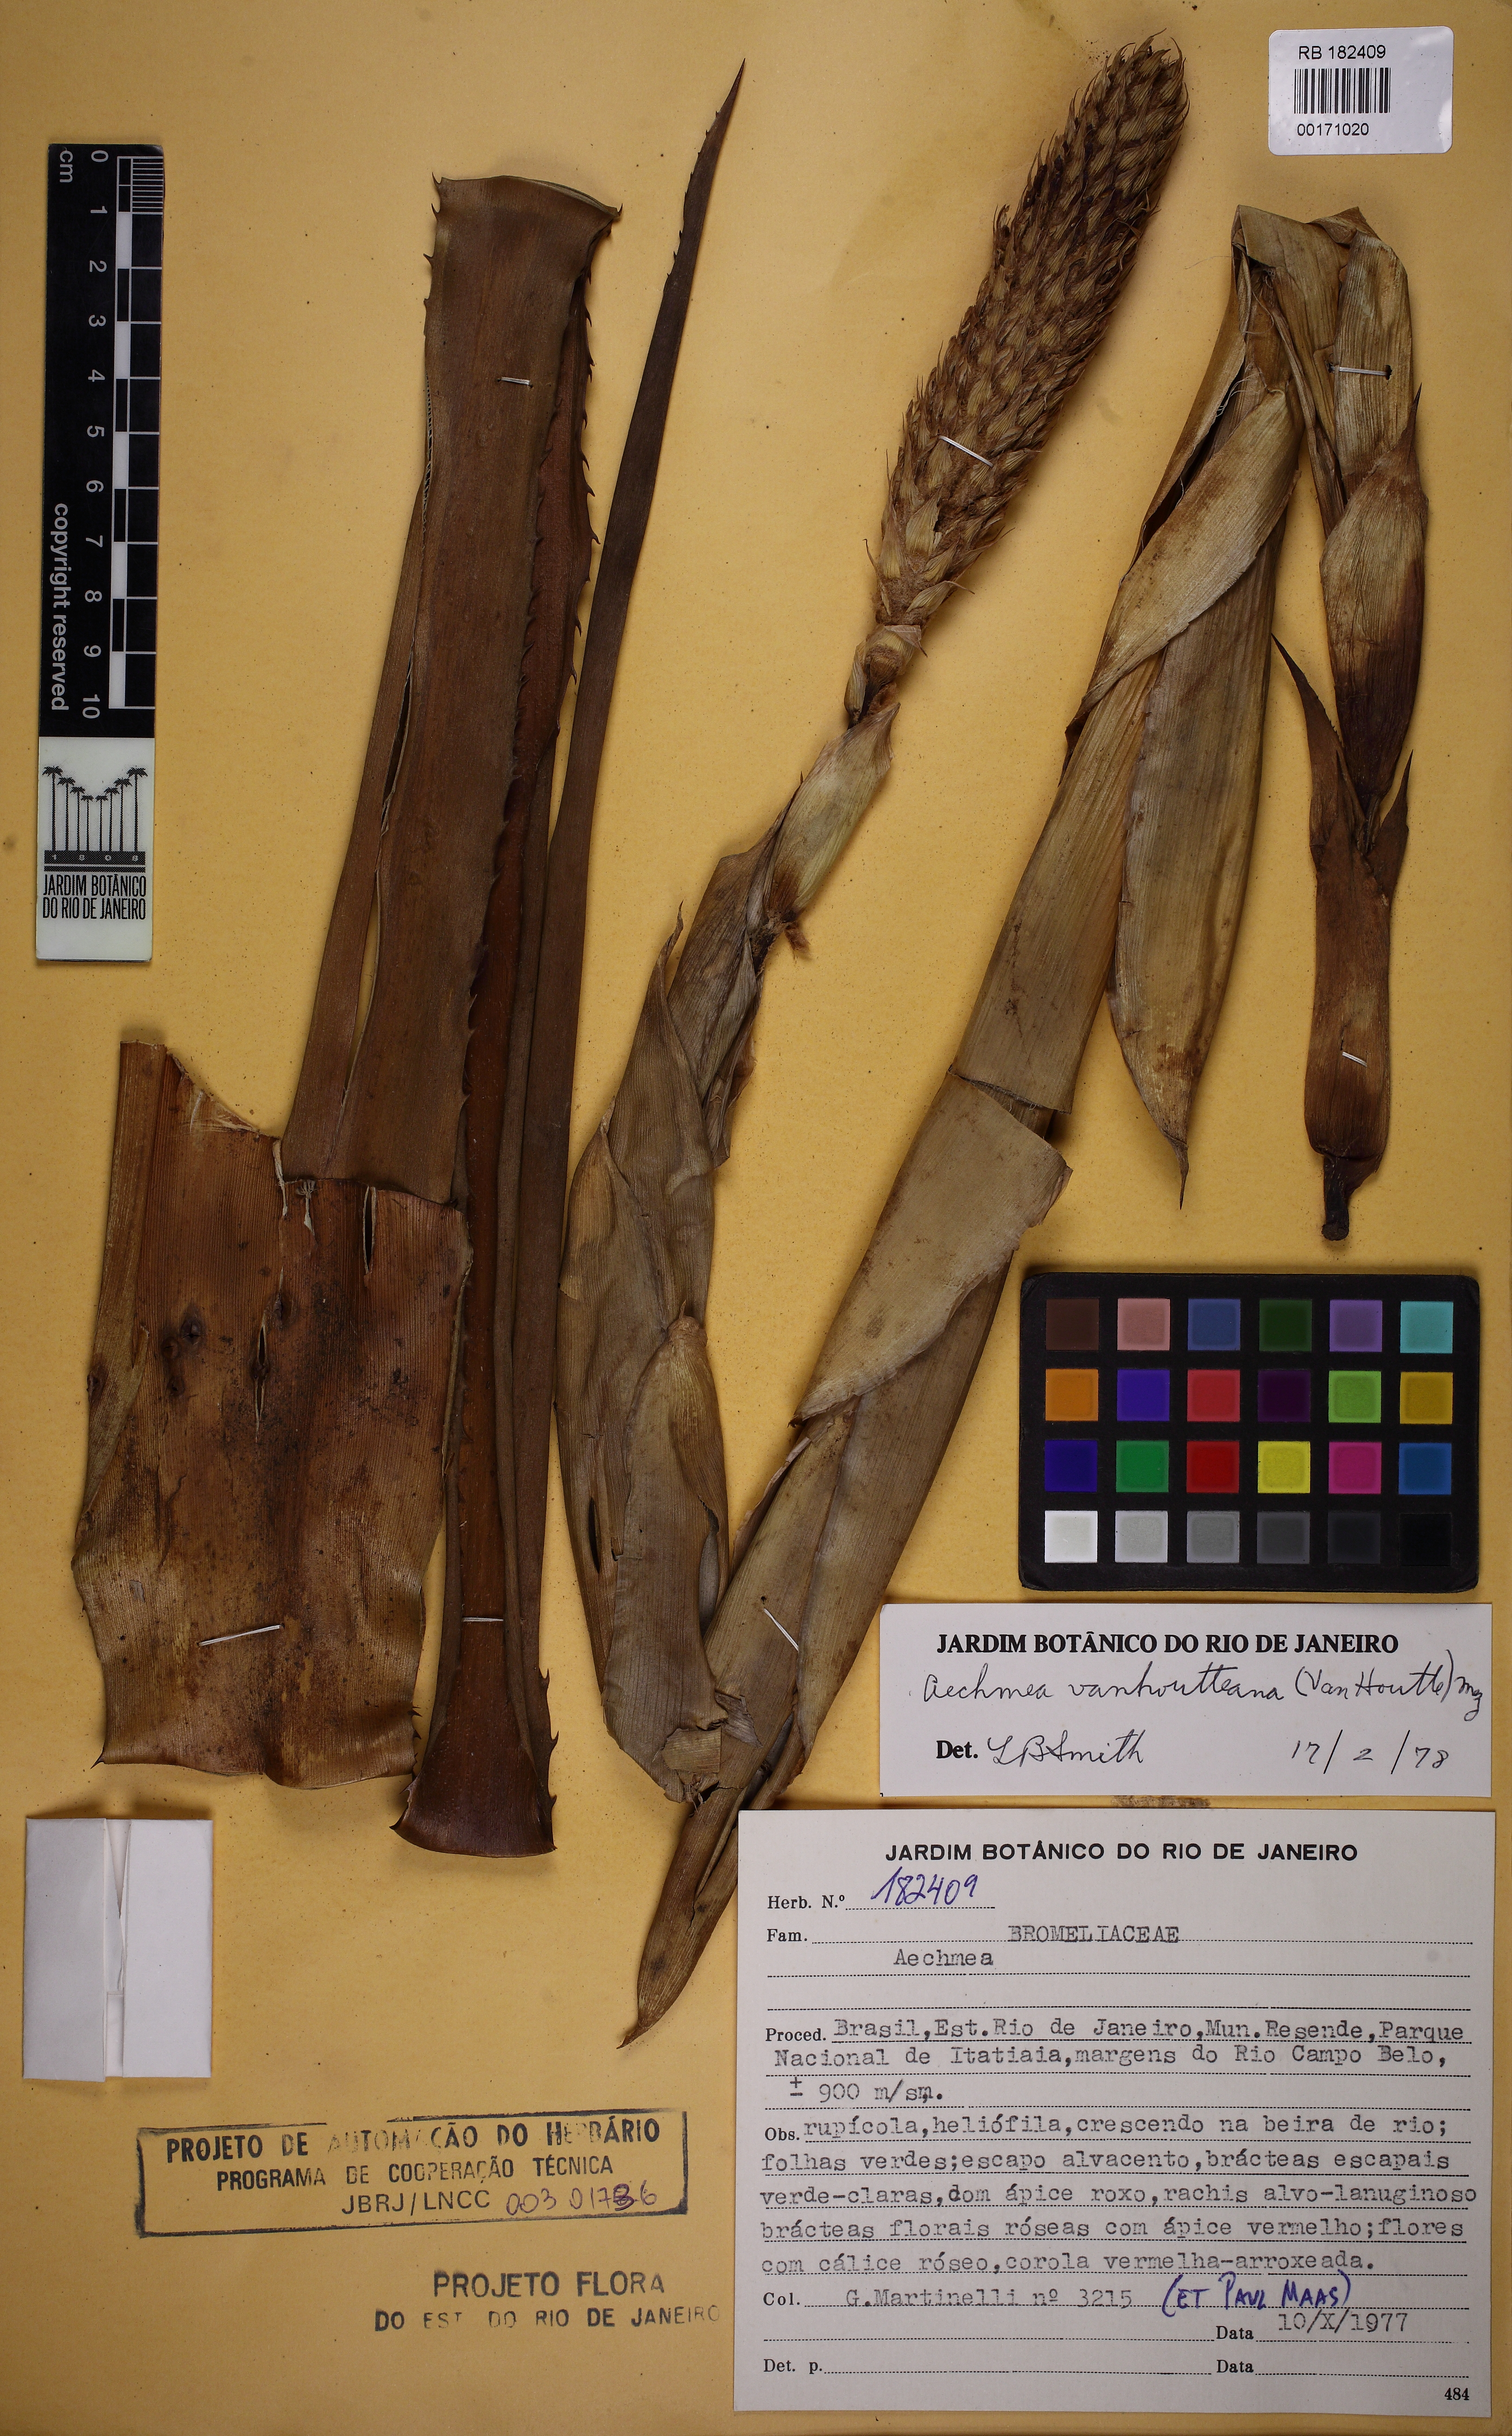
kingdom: Plantae
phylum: Tracheophyta
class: Liliopsida
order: Poales
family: Bromeliaceae
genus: Aechmea
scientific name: Aechmea vanhoutteana
